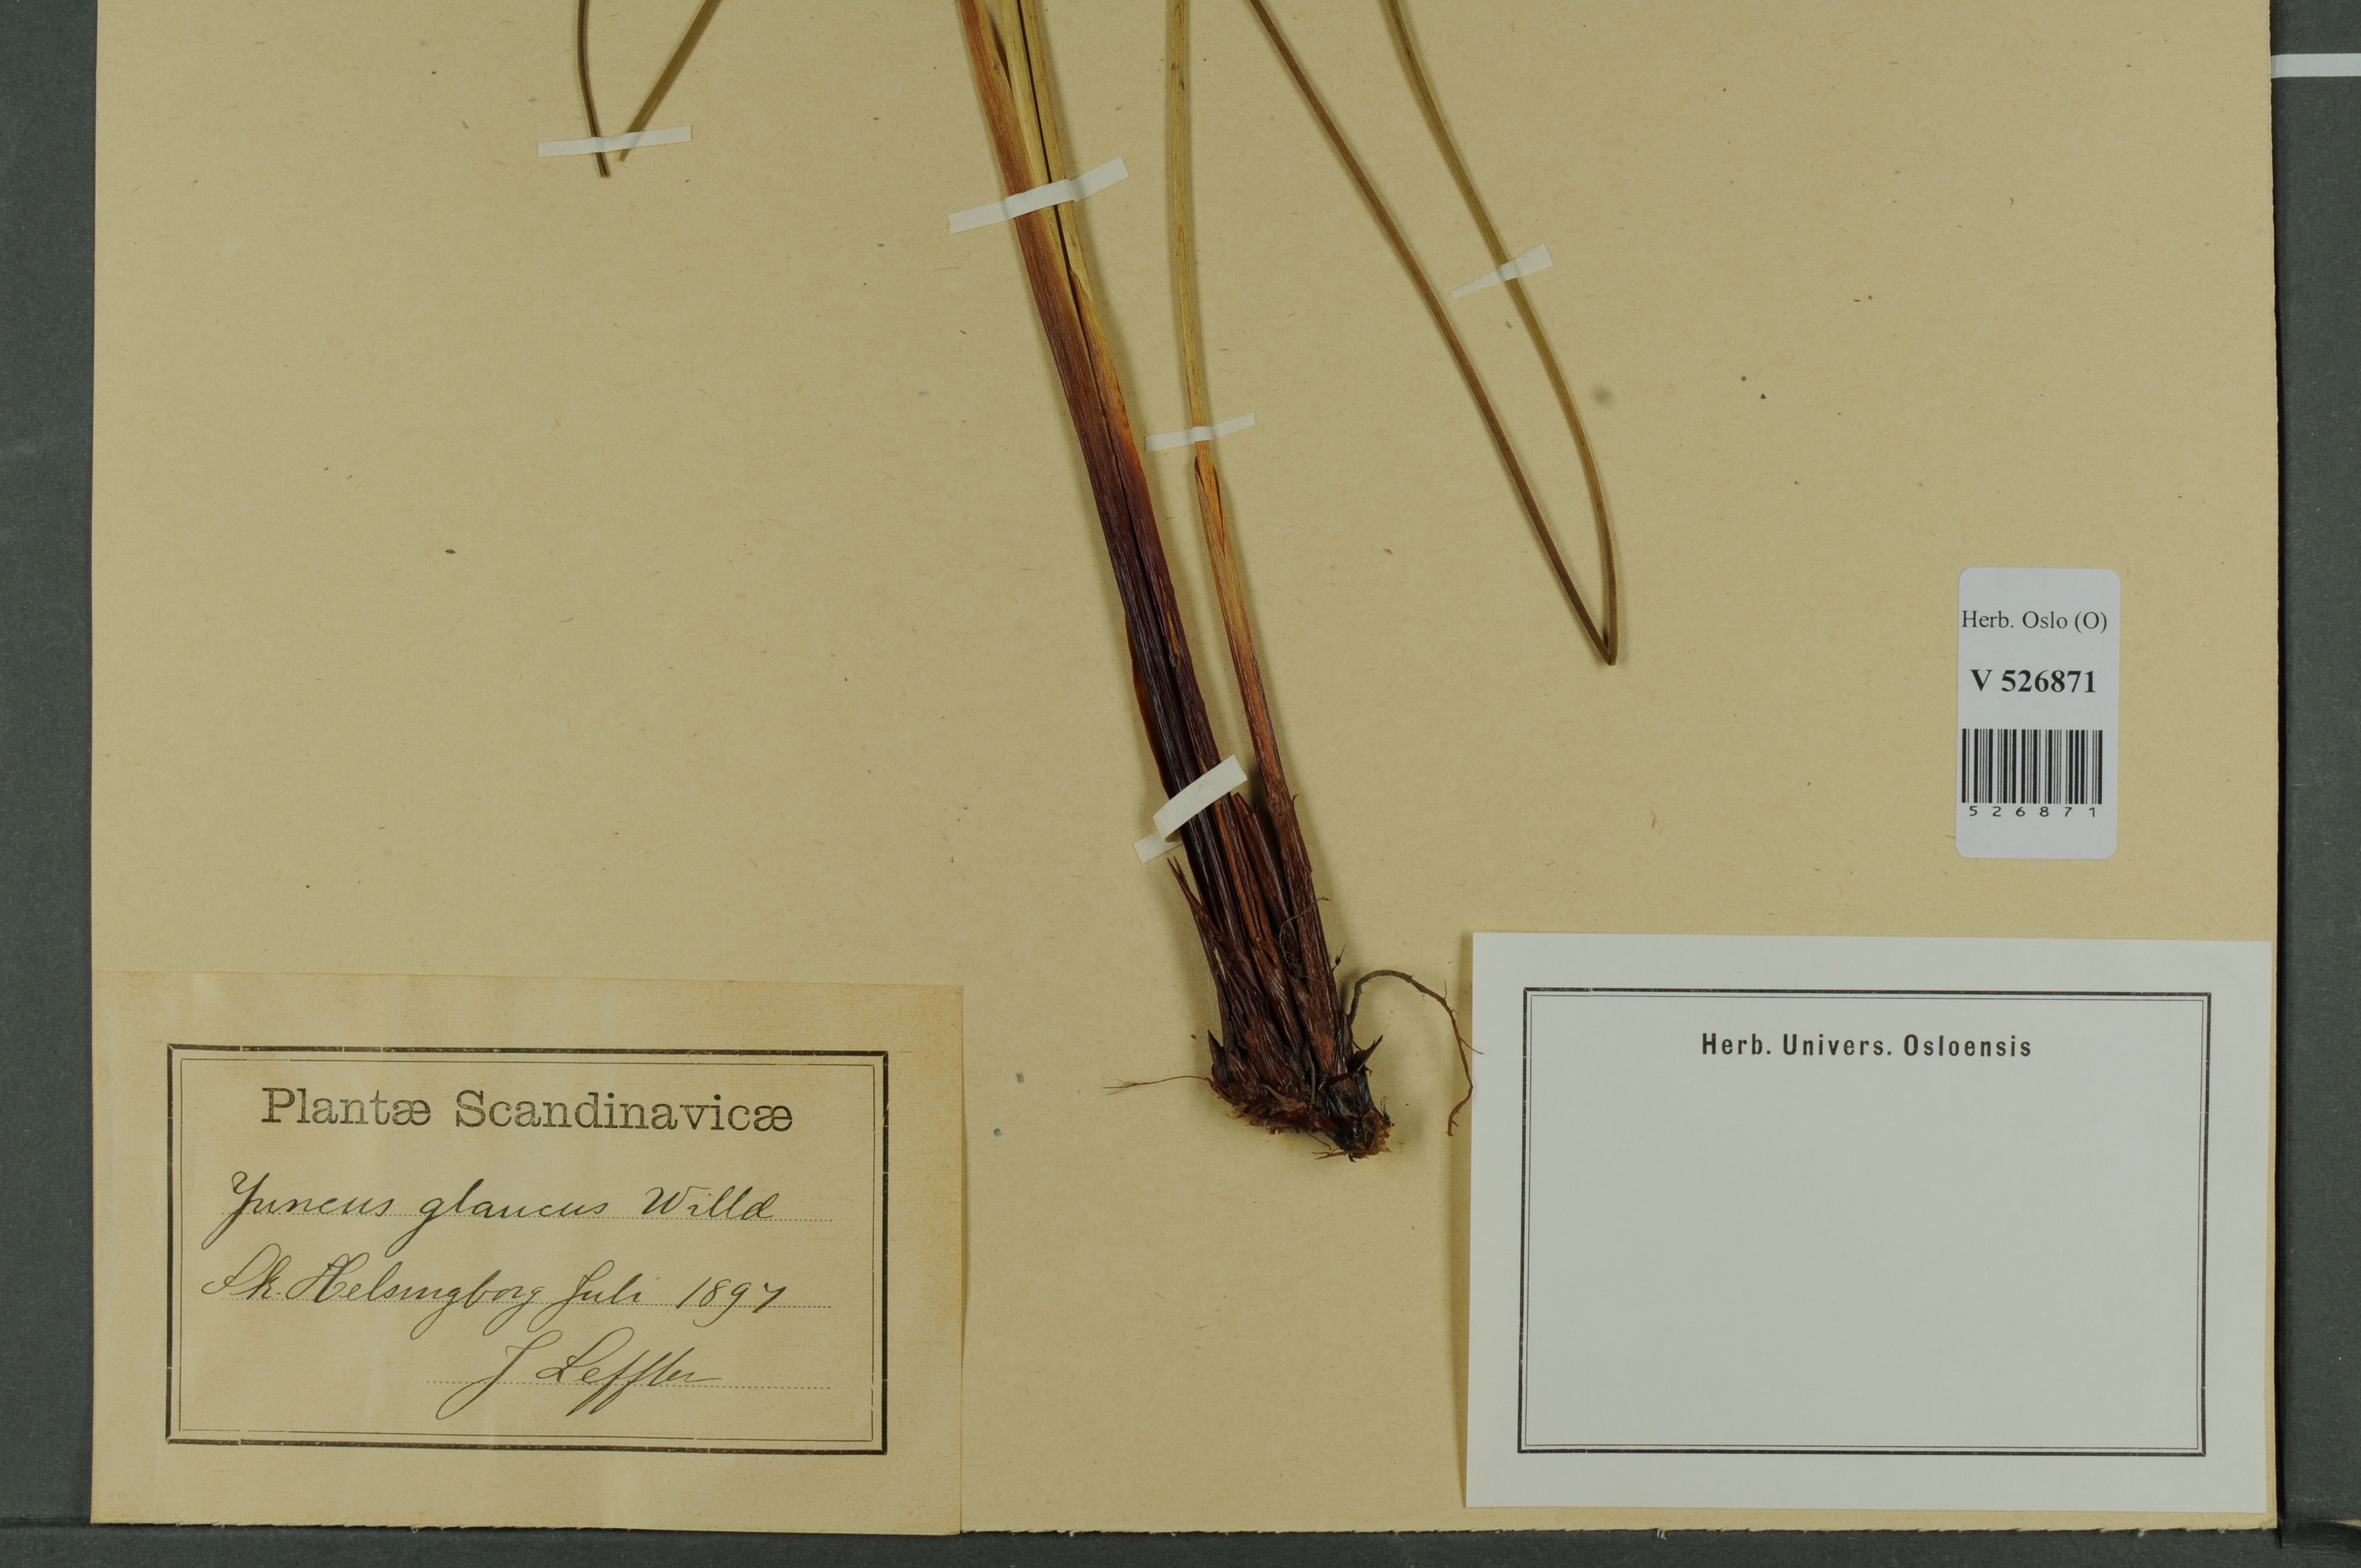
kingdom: Plantae
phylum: Tracheophyta
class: Liliopsida
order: Poales
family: Juncaceae
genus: Juncus
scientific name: Juncus inflexus
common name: Hard rush
